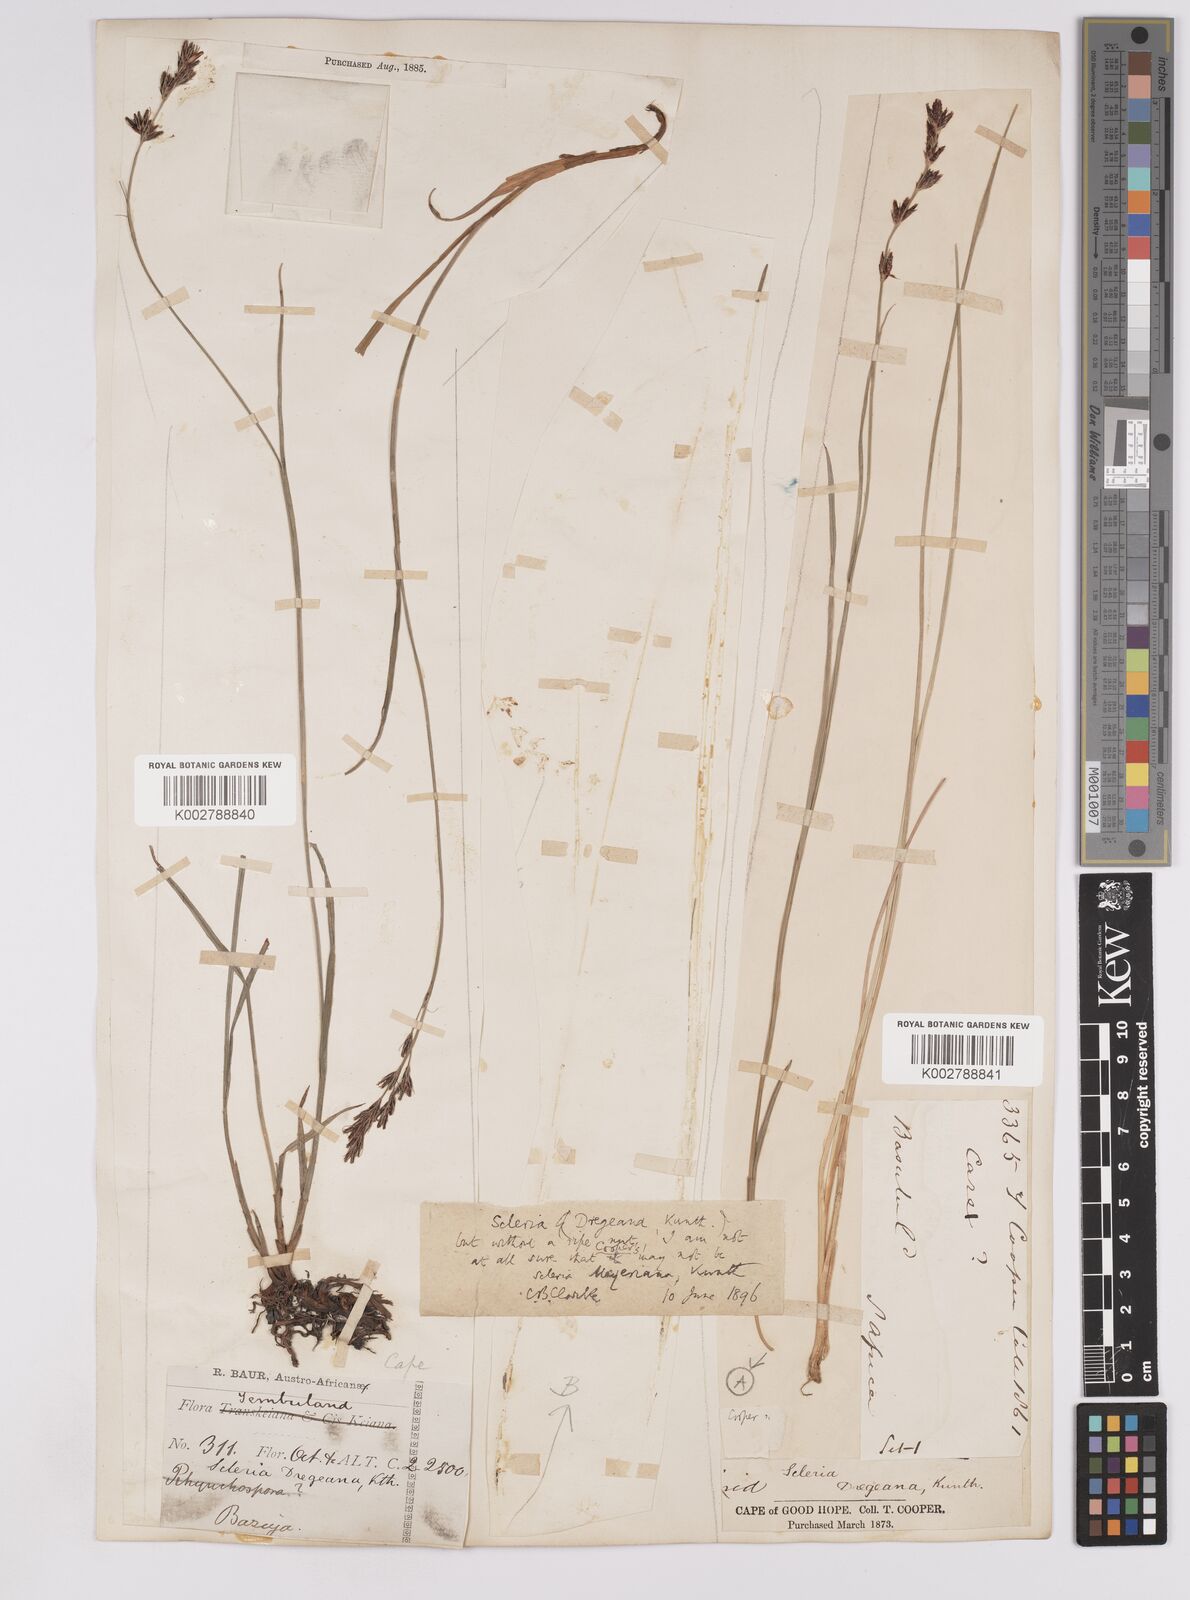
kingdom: Plantae
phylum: Tracheophyta
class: Liliopsida
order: Poales
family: Cyperaceae
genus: Scleria
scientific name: Scleria dregeana
